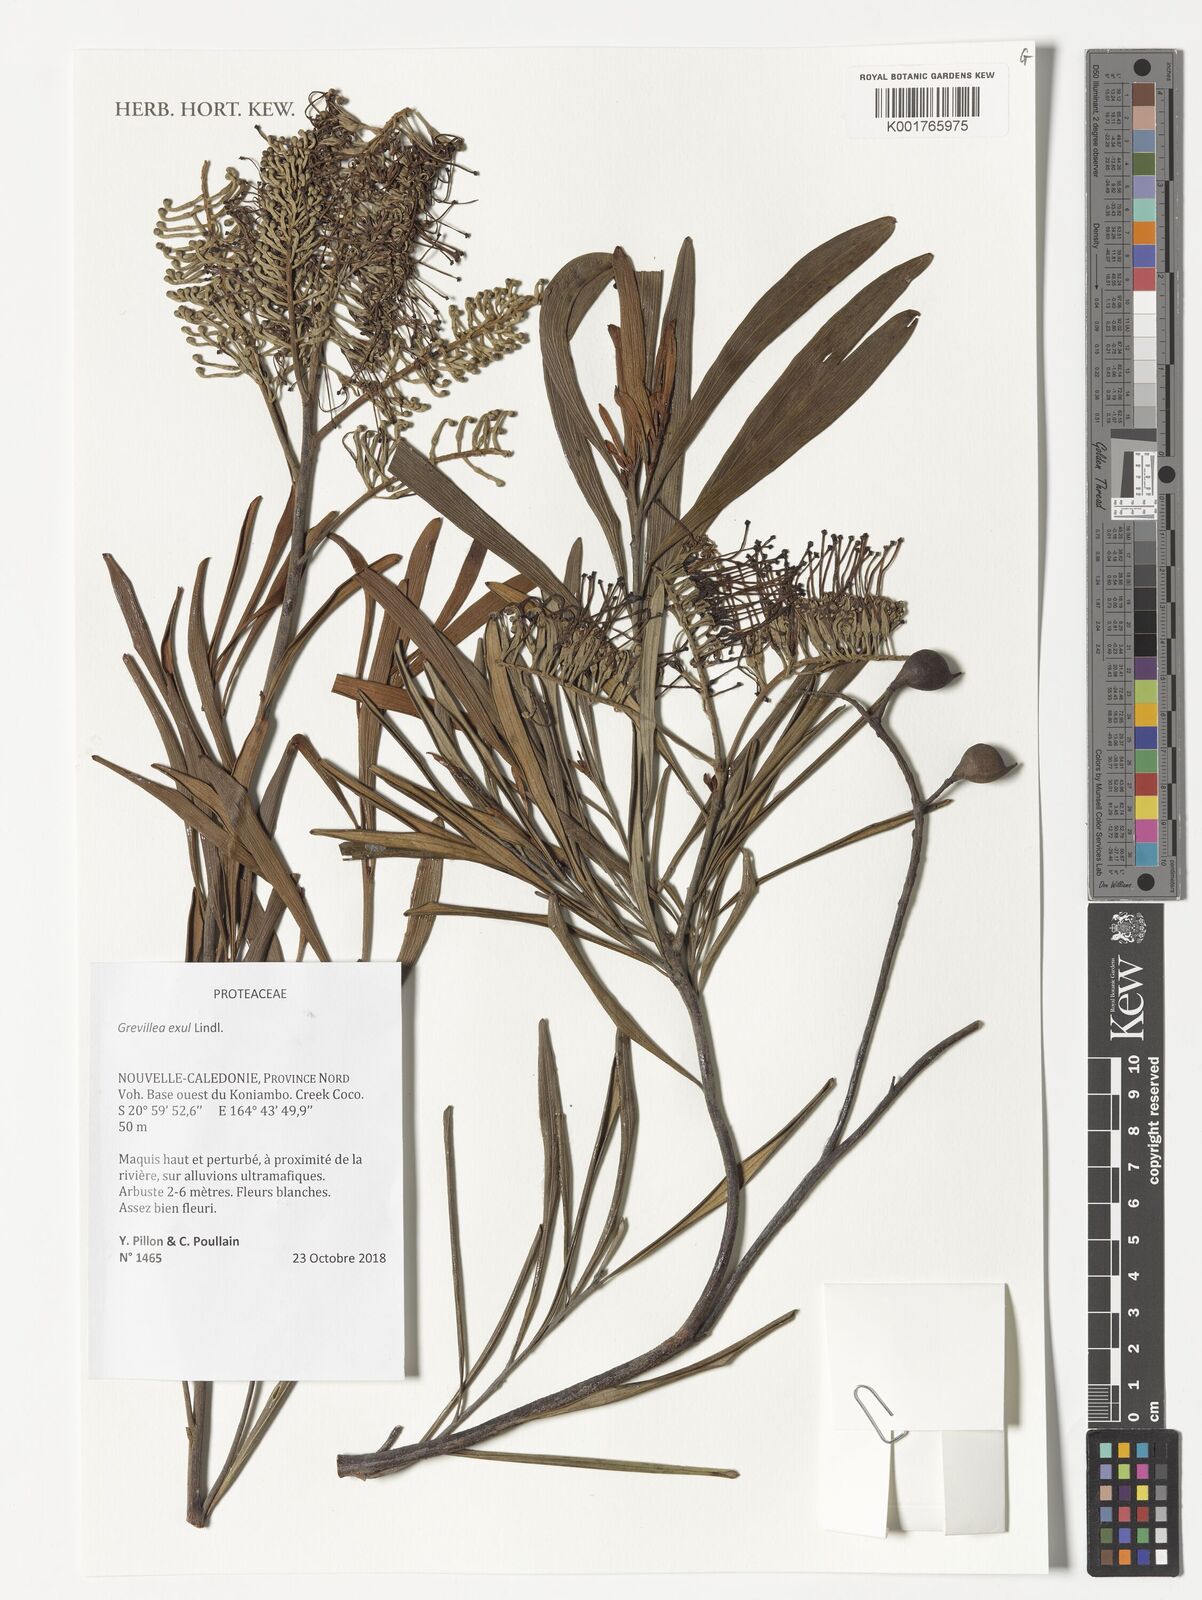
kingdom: Plantae
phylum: Tracheophyta
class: Magnoliopsida
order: Proteales
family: Proteaceae
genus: Grevillea
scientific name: Grevillea exul
